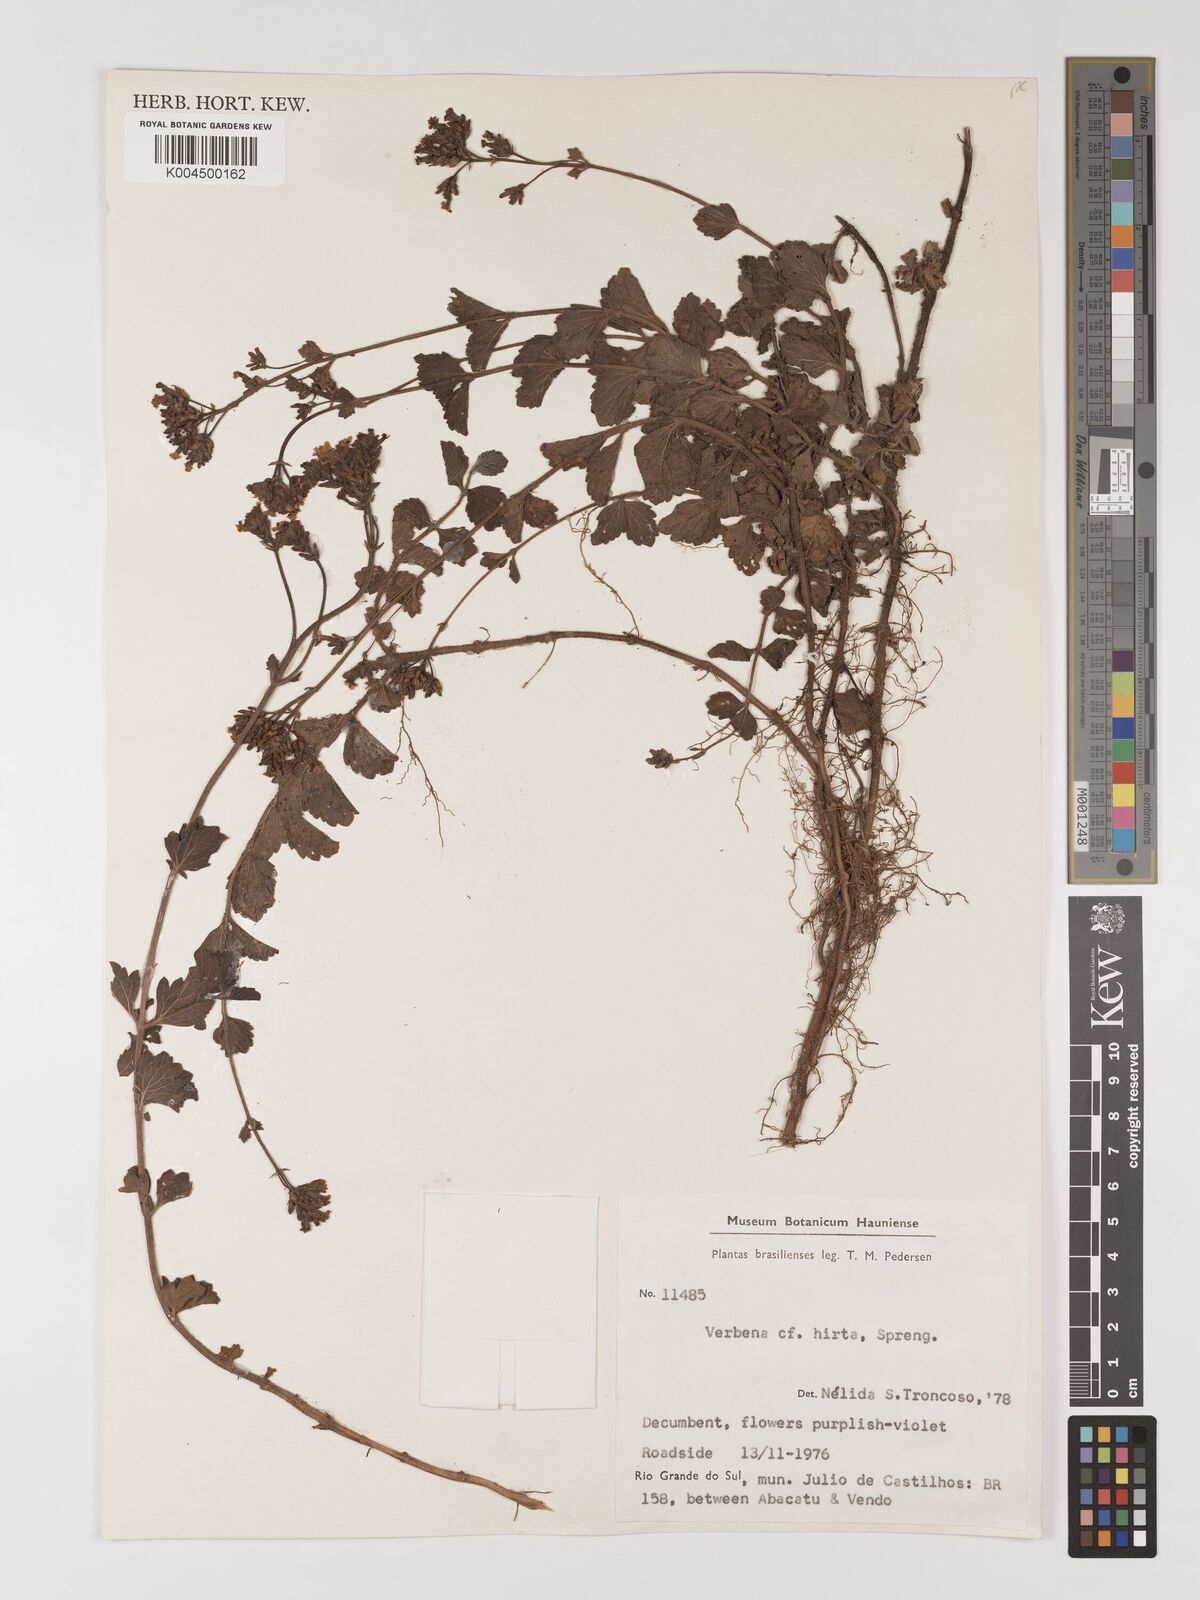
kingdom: Plantae
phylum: Tracheophyta
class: Magnoliopsida
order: Lamiales
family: Verbenaceae
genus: Verbena
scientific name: Verbena hirta
